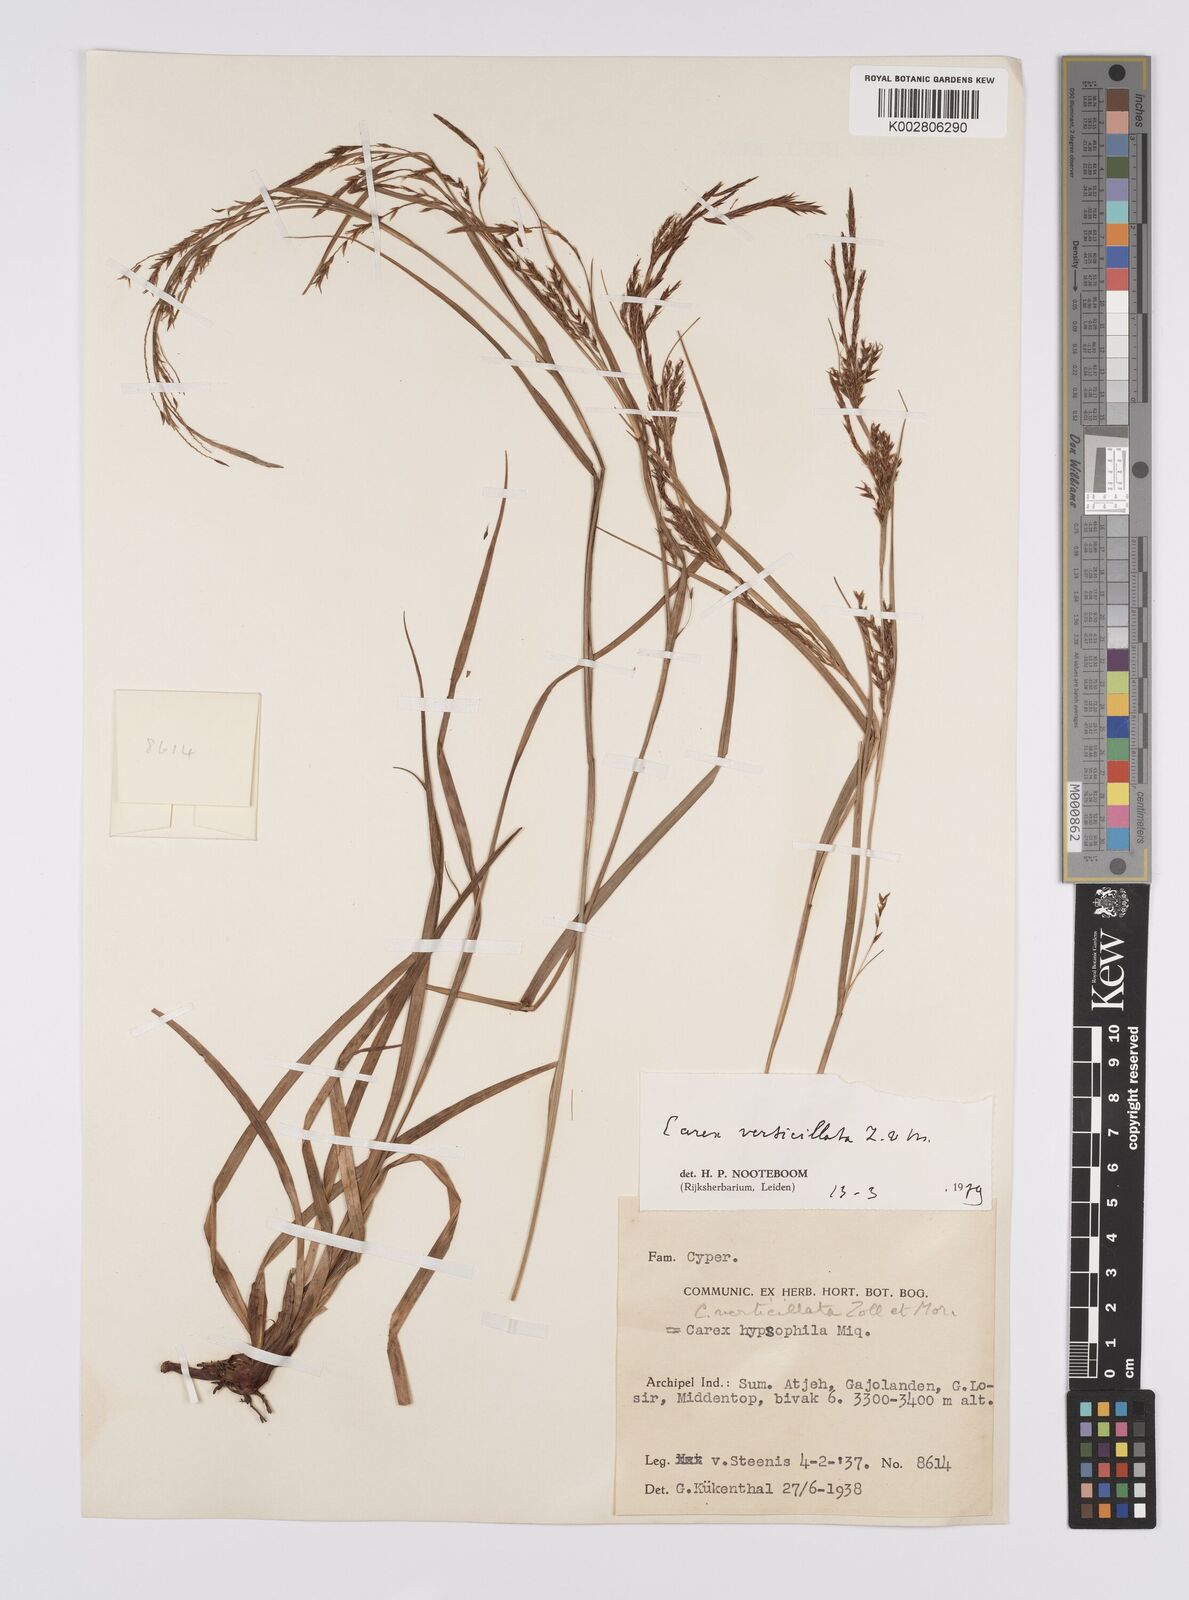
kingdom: Plantae
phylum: Tracheophyta
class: Liliopsida
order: Poales
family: Cyperaceae
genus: Carex
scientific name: Carex verticillata
